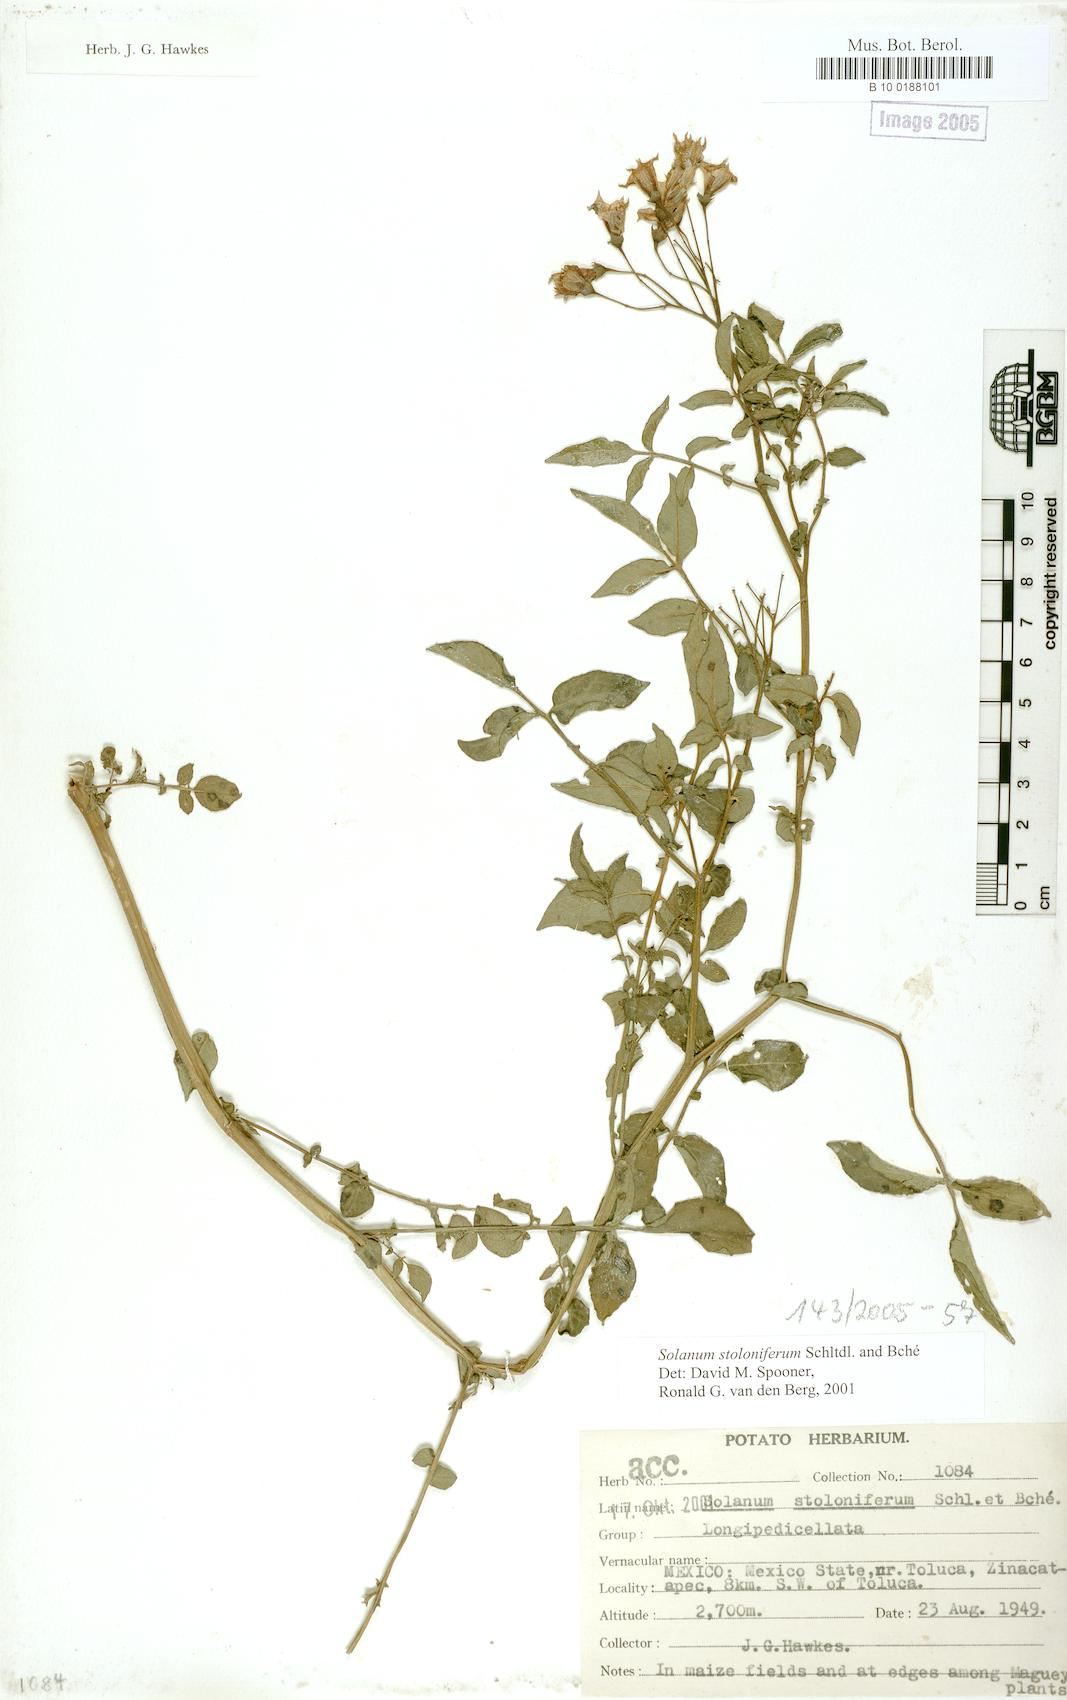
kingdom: Plantae
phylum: Tracheophyta
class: Magnoliopsida
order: Solanales
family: Solanaceae
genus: Solanum
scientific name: Solanum stoloniferum
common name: Fendler's nighshade
